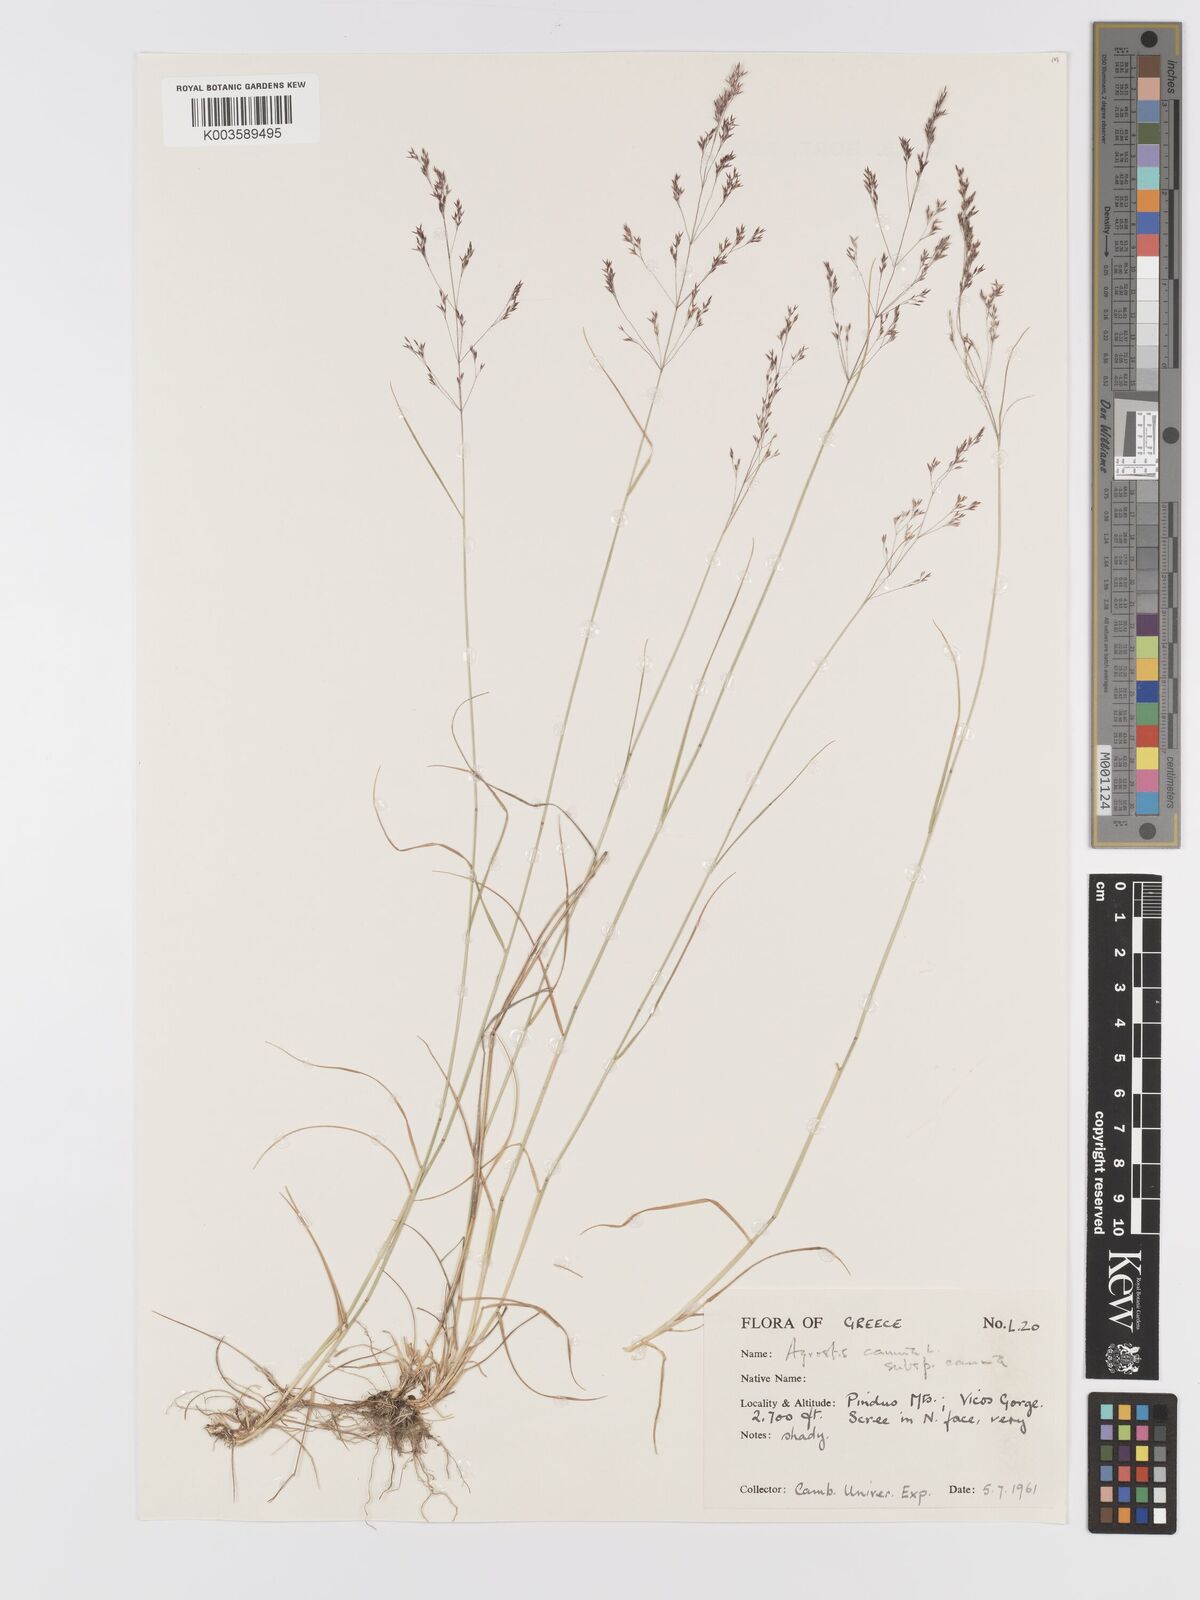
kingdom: Plantae
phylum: Tracheophyta
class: Liliopsida
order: Poales
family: Poaceae
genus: Agrostis
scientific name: Agrostis canina
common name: Velvet bent
